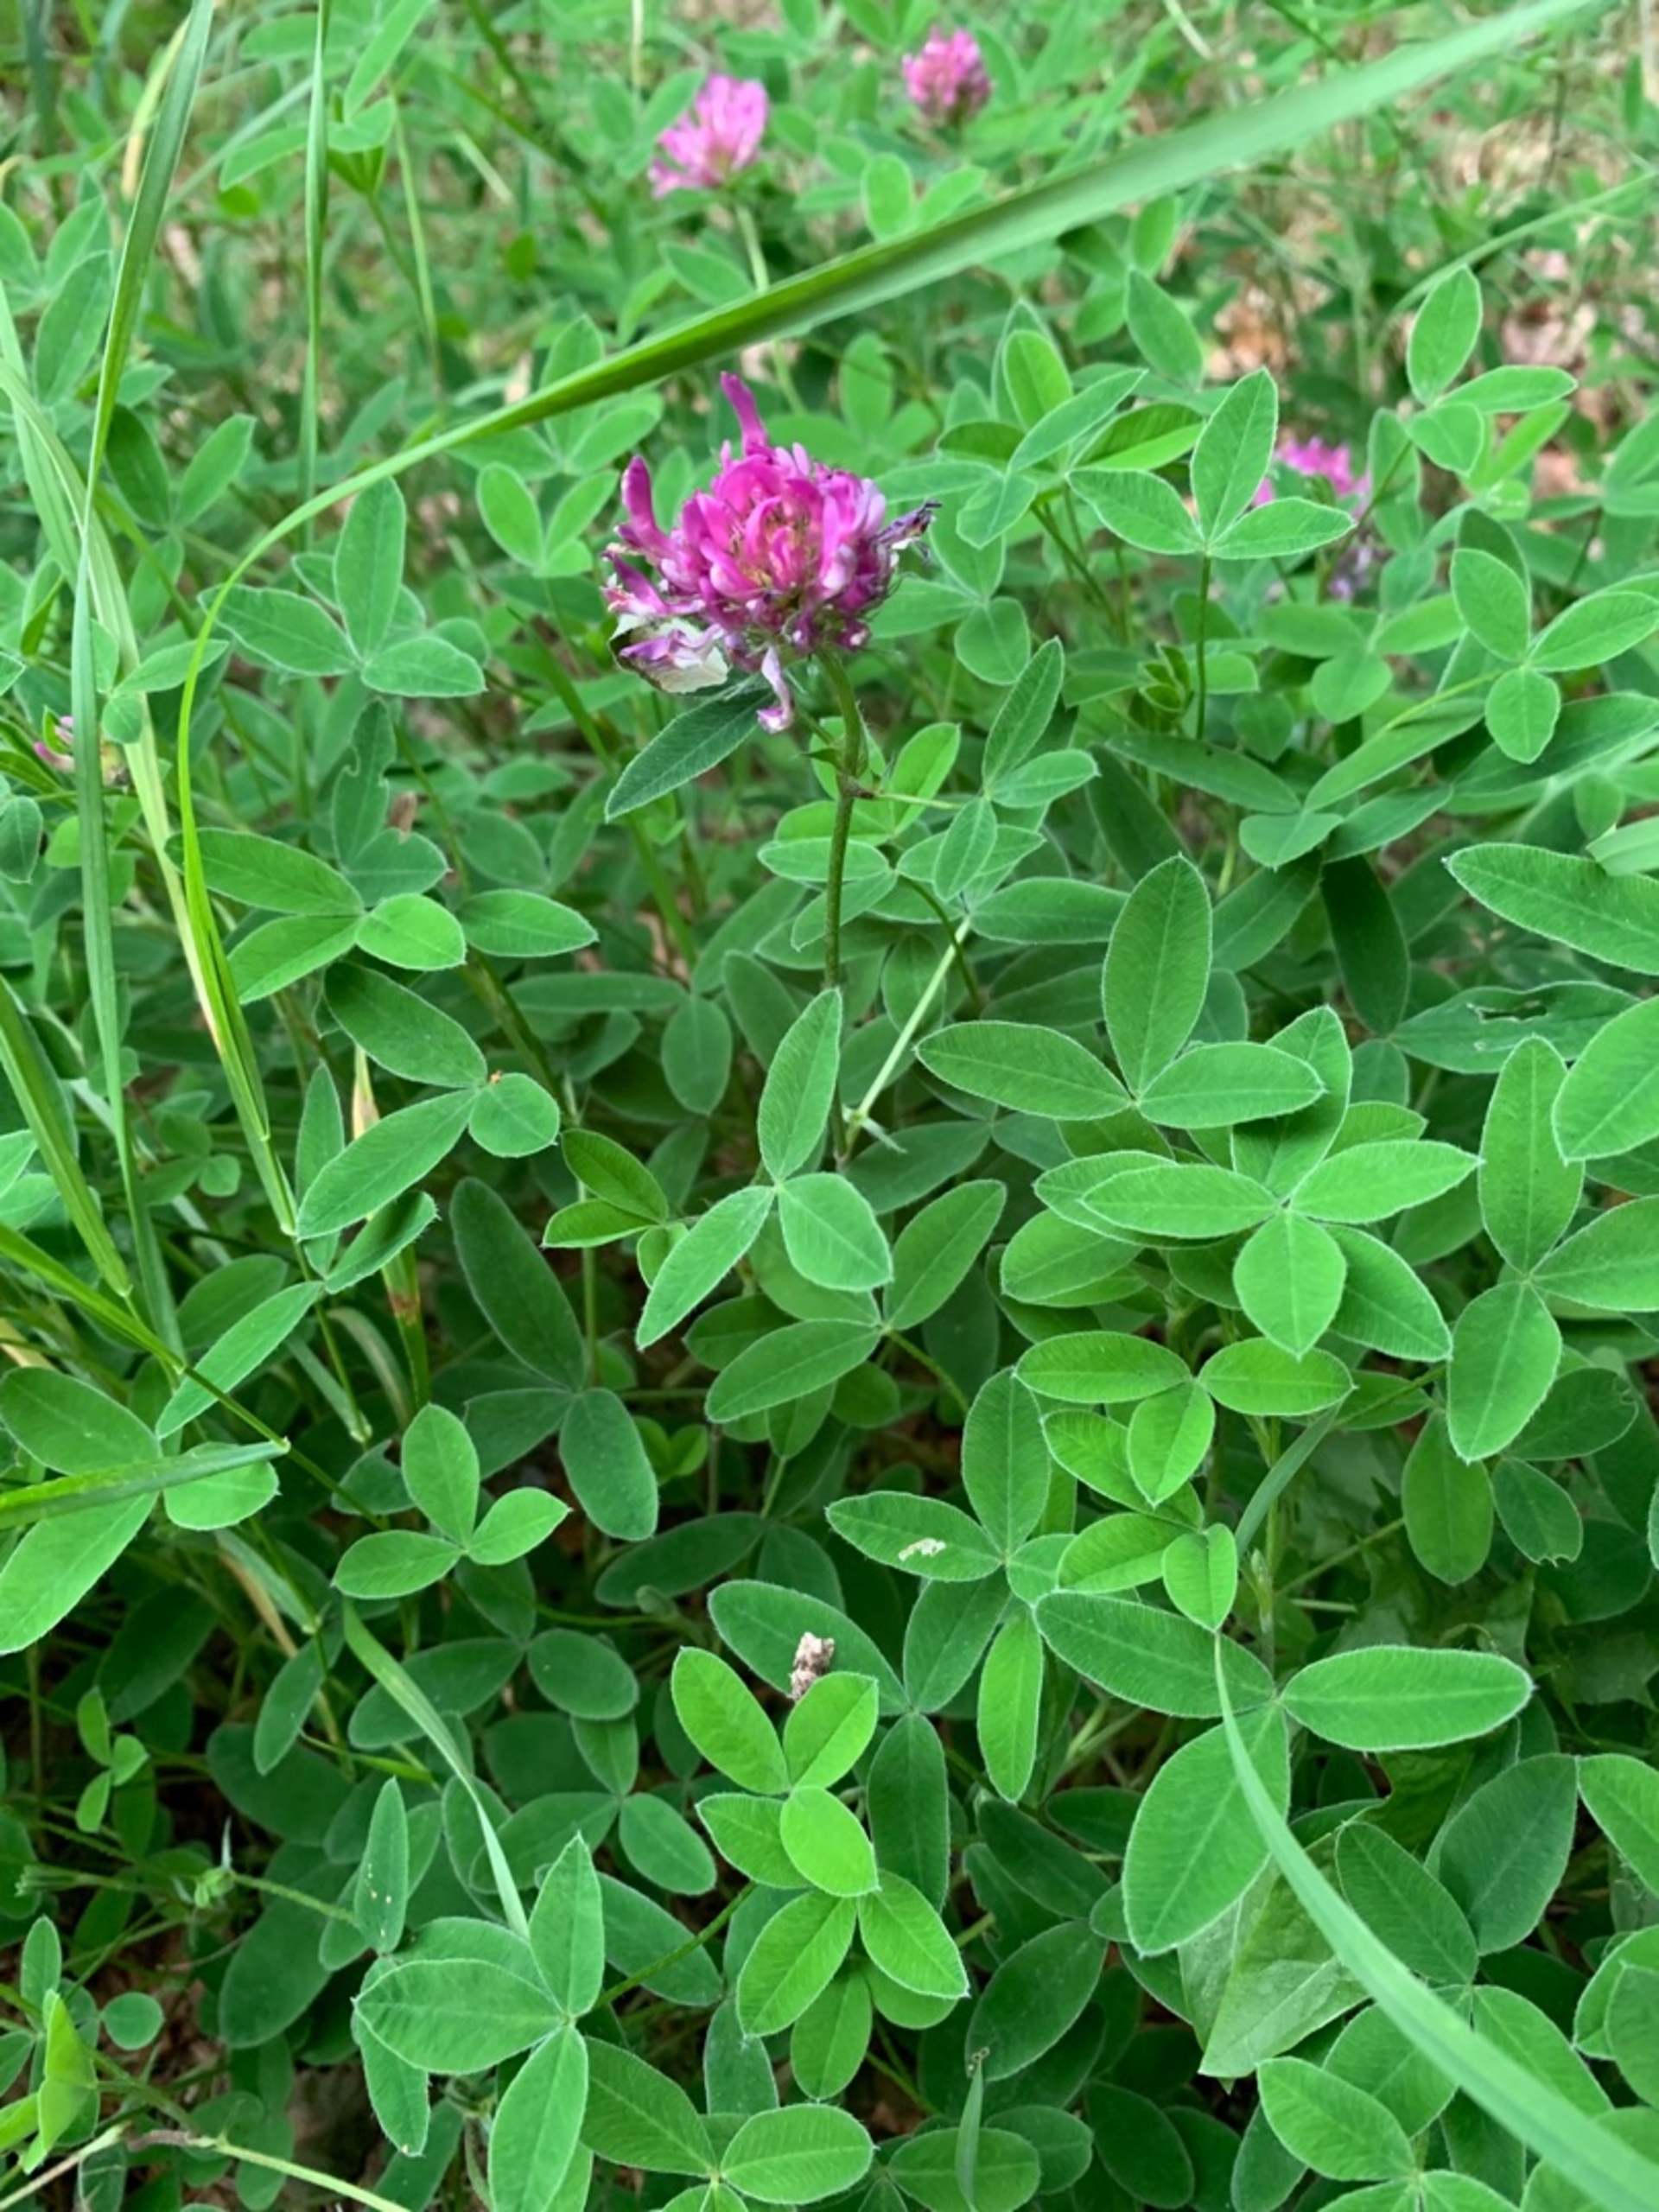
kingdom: Plantae
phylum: Tracheophyta
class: Magnoliopsida
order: Fabales
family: Fabaceae
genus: Trifolium
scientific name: Trifolium medium
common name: Bugtet kløver
